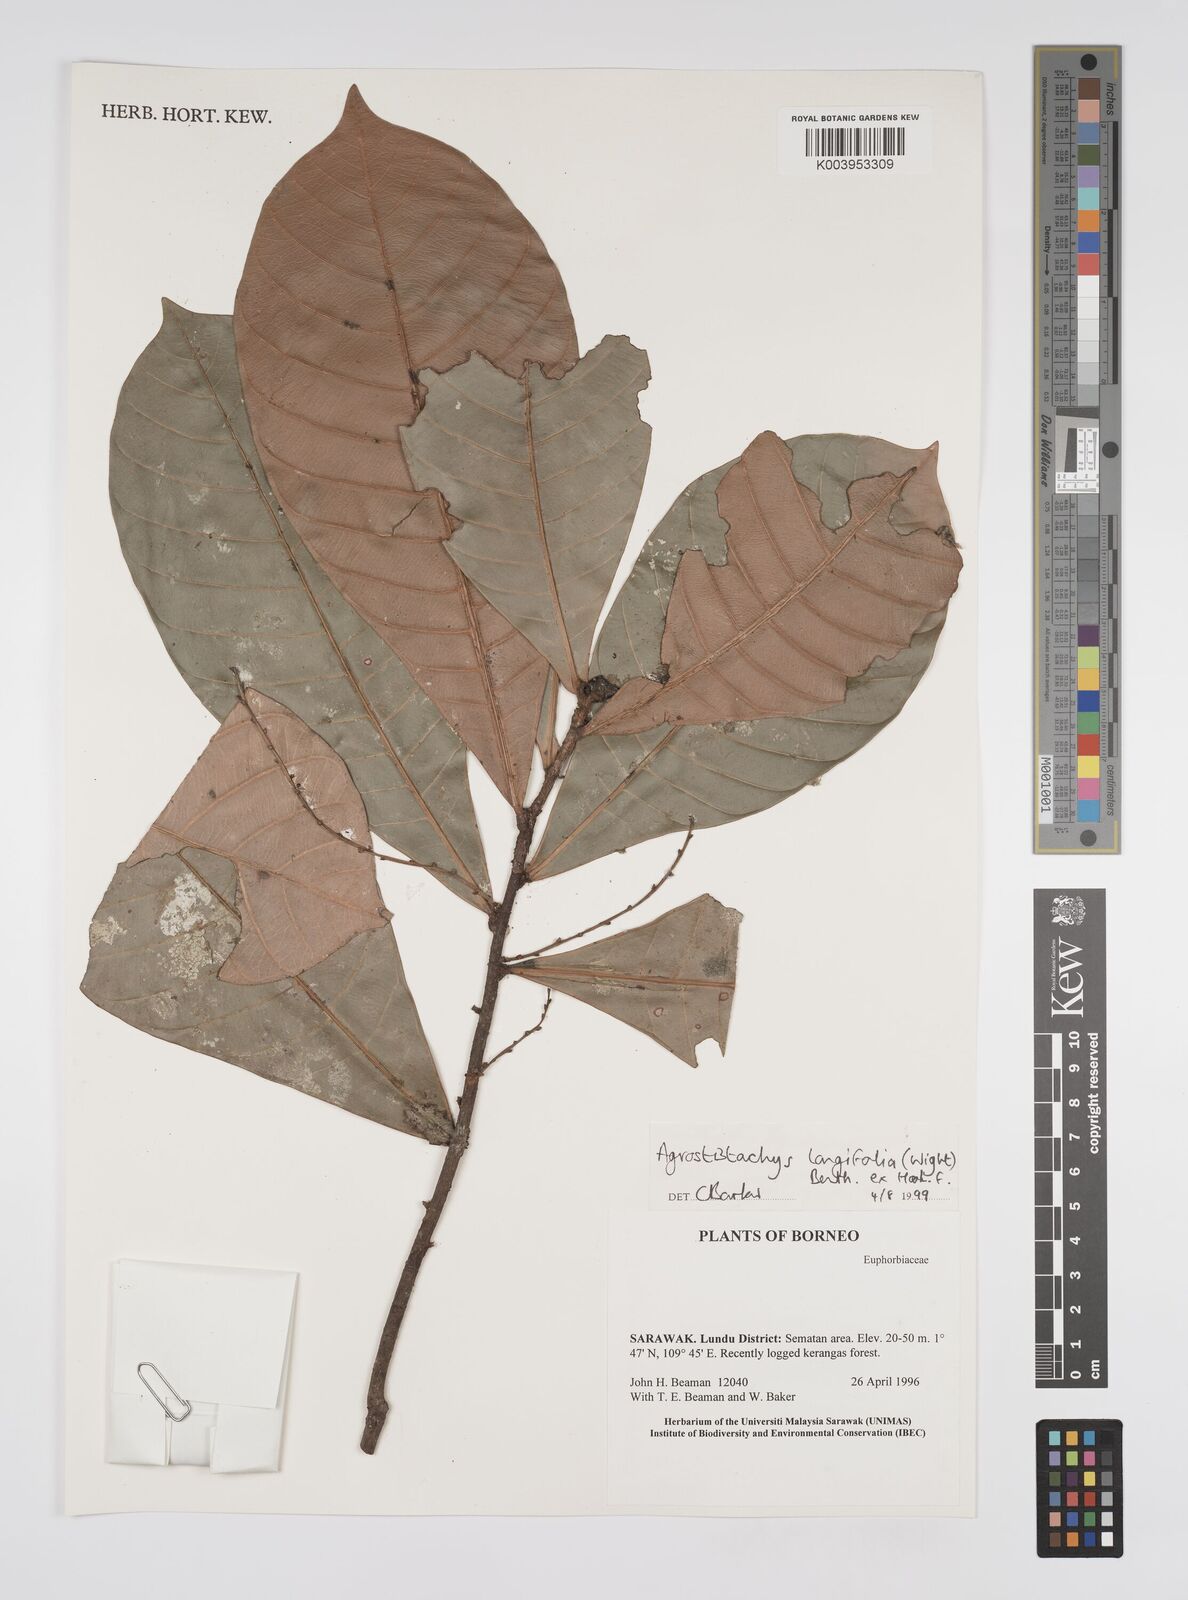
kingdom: Plantae
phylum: Tracheophyta
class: Magnoliopsida
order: Malpighiales
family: Euphorbiaceae
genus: Agrostistachys
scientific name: Agrostistachys borneensis
